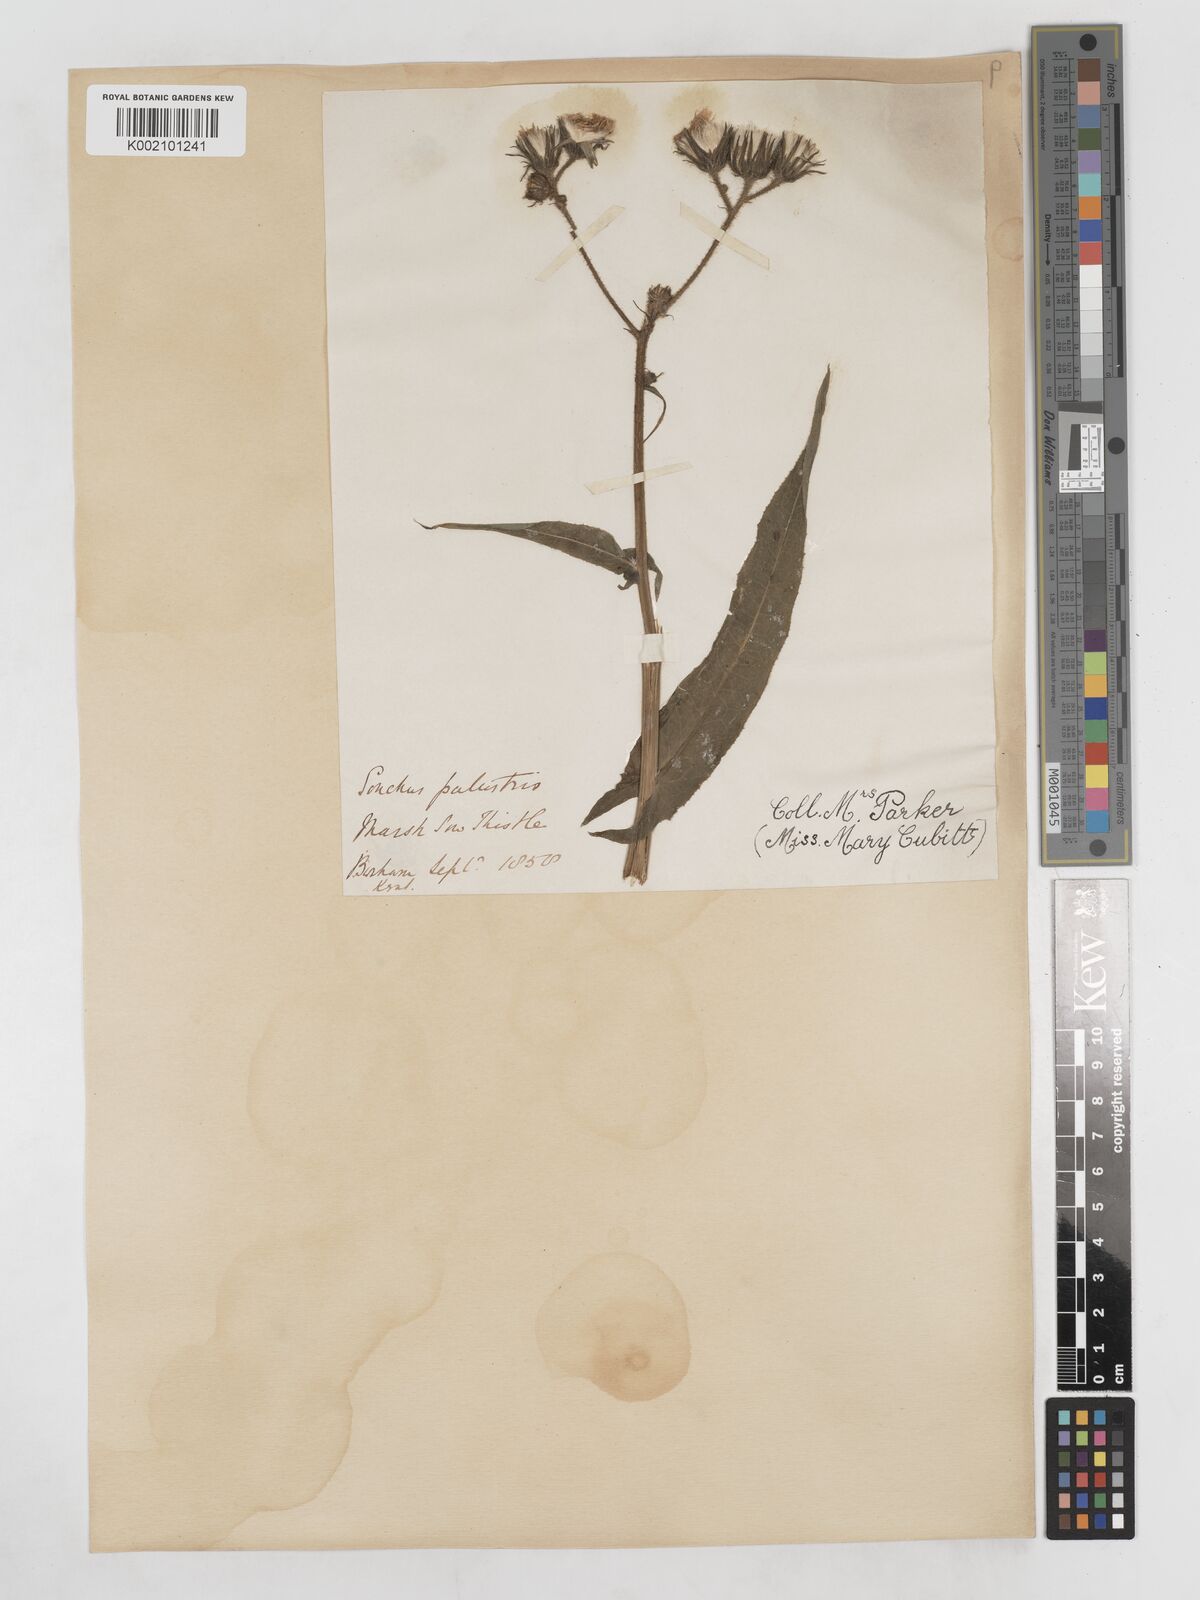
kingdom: Plantae
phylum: Tracheophyta
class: Magnoliopsida
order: Asterales
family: Asteraceae
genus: Sonchus
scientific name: Sonchus palustris
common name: Marsh sow-thistle
